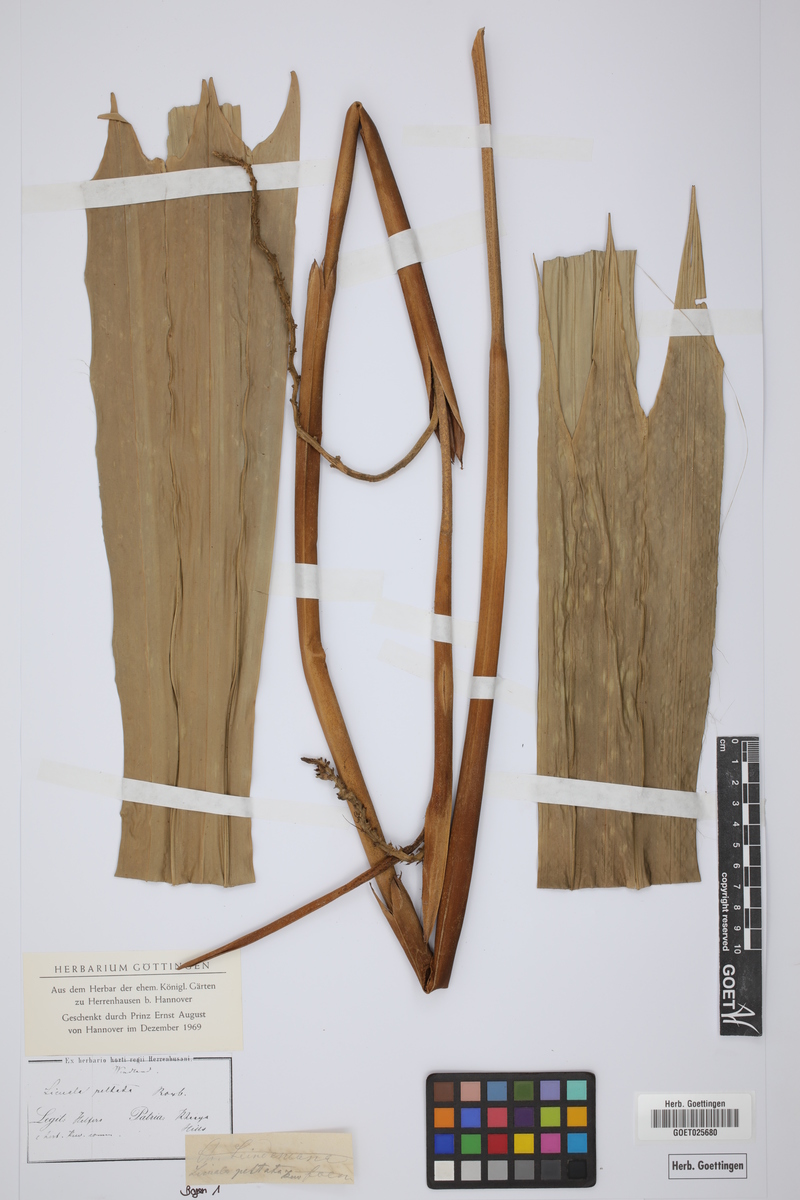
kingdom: Plantae
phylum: Tracheophyta
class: Liliopsida
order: Arecales
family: Arecaceae
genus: Licuala
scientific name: Licuala peltata
